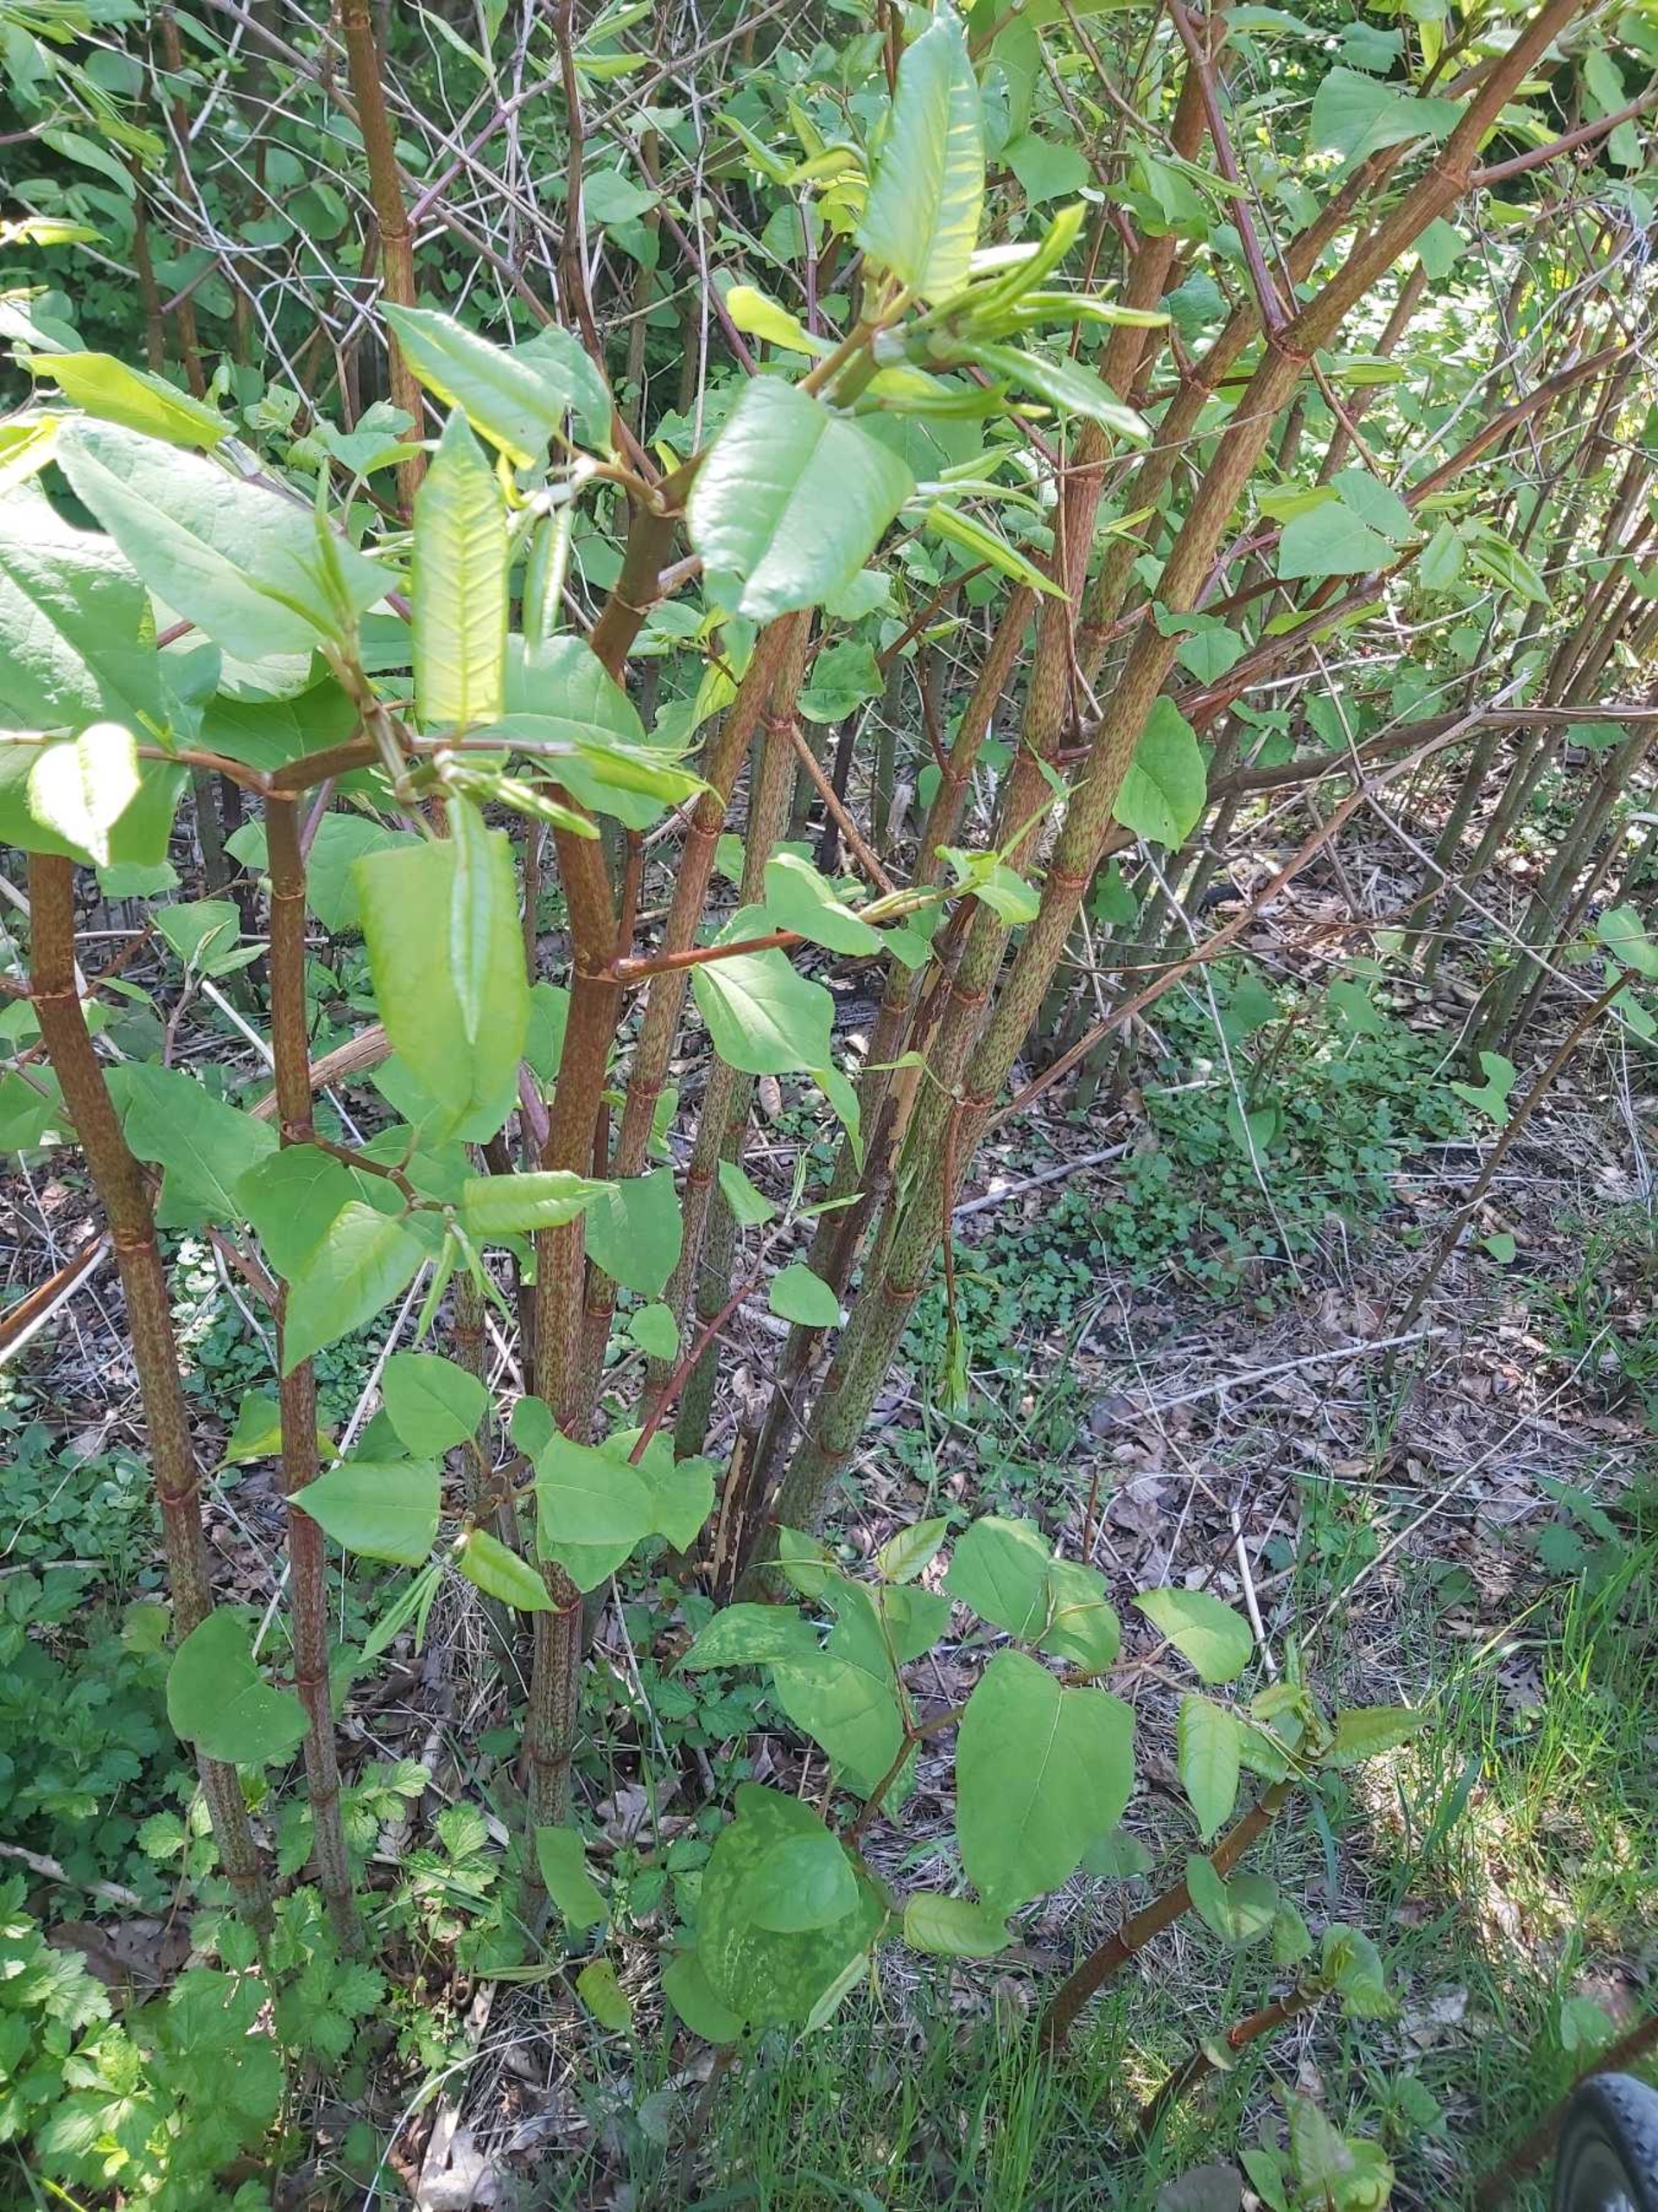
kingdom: Plantae
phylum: Tracheophyta
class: Magnoliopsida
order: Caryophyllales
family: Polygonaceae
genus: Reynoutria
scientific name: Reynoutria japonica
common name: Japan-pileurt
